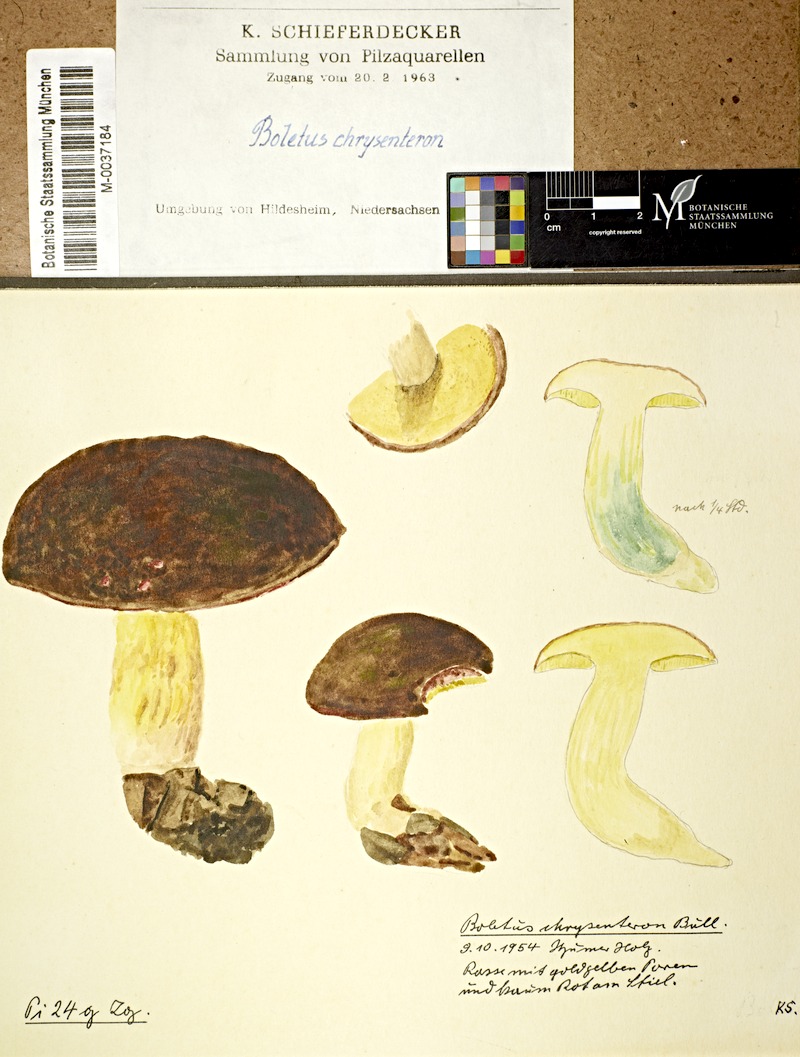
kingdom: Fungi
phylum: Basidiomycota
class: Agaricomycetes
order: Boletales
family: Boletaceae
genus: Xerocomellus
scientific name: Xerocomellus chrysenteron
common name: Red-cracking bolete
